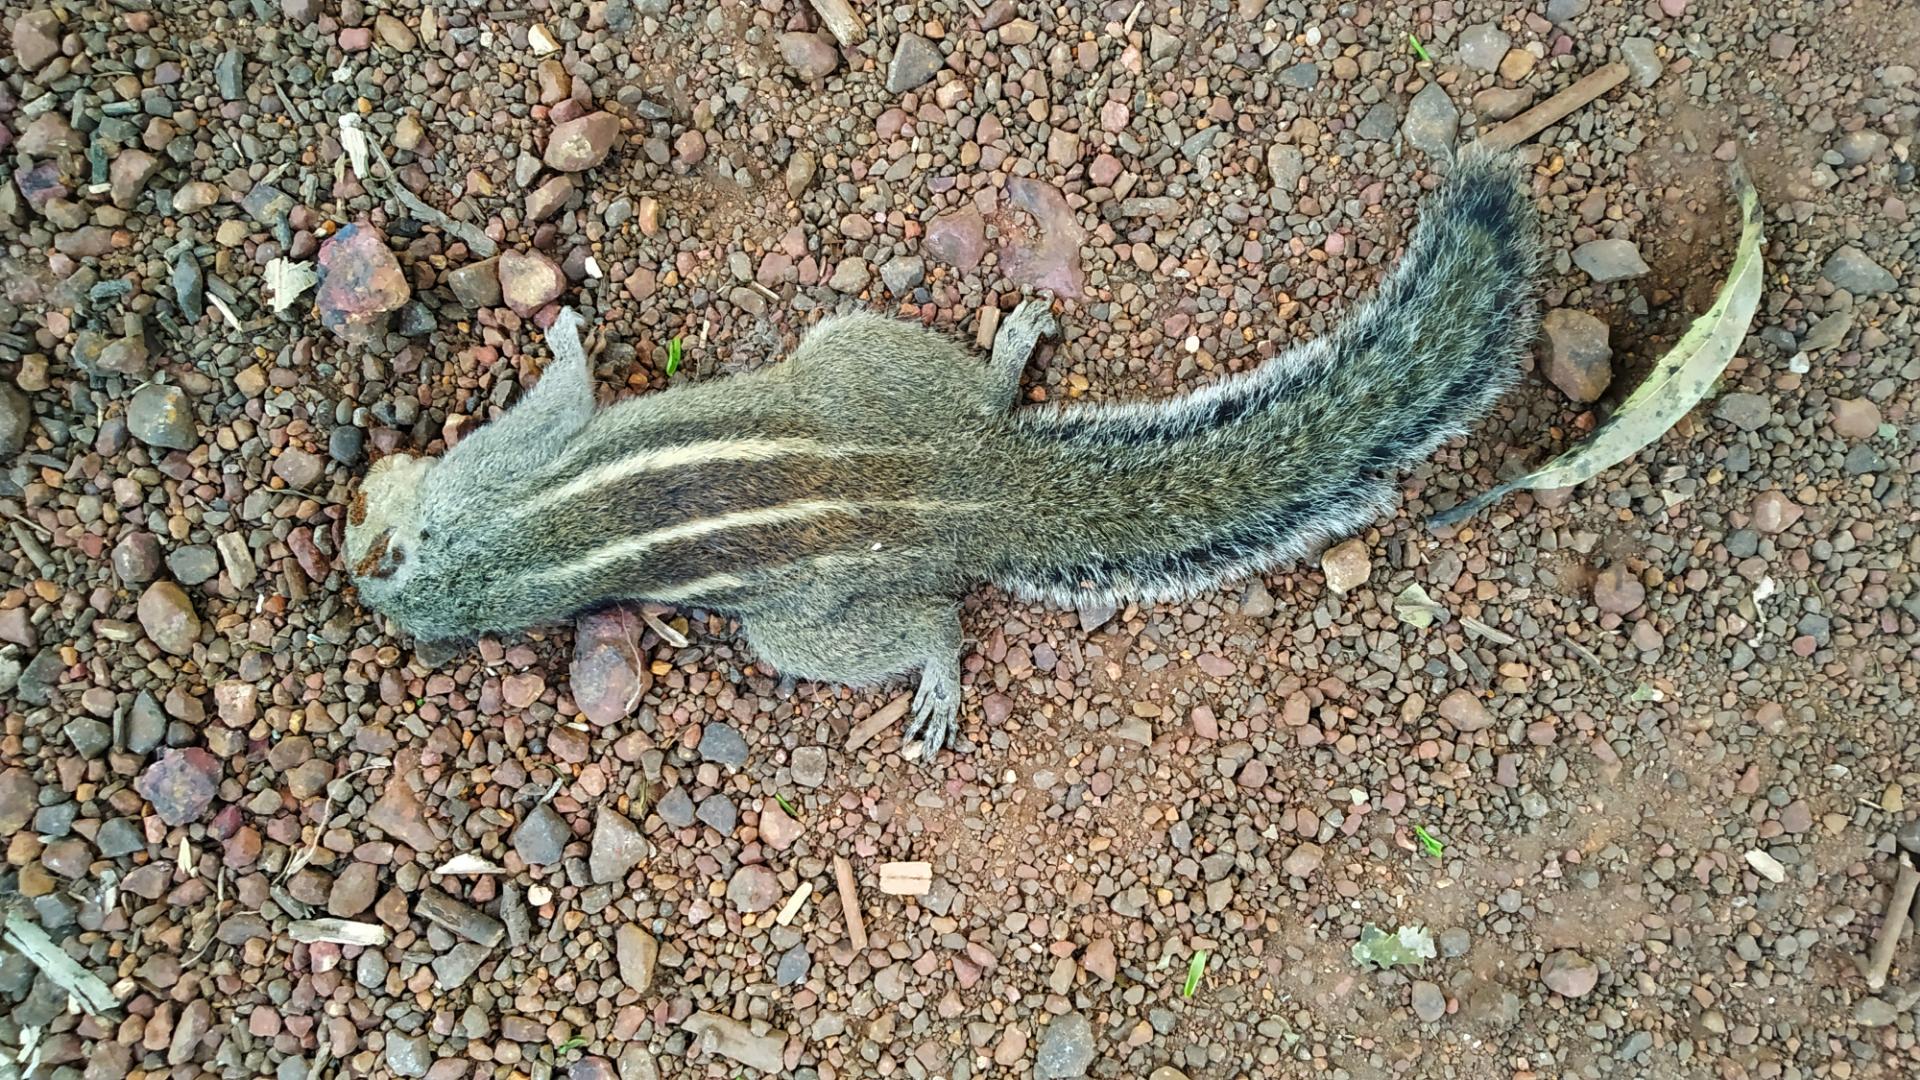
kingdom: Animalia
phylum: Chordata
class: Mammalia
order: Rodentia
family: Sciuridae
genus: Funambulus
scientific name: Funambulus palmarum
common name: Indian palm squirrel
